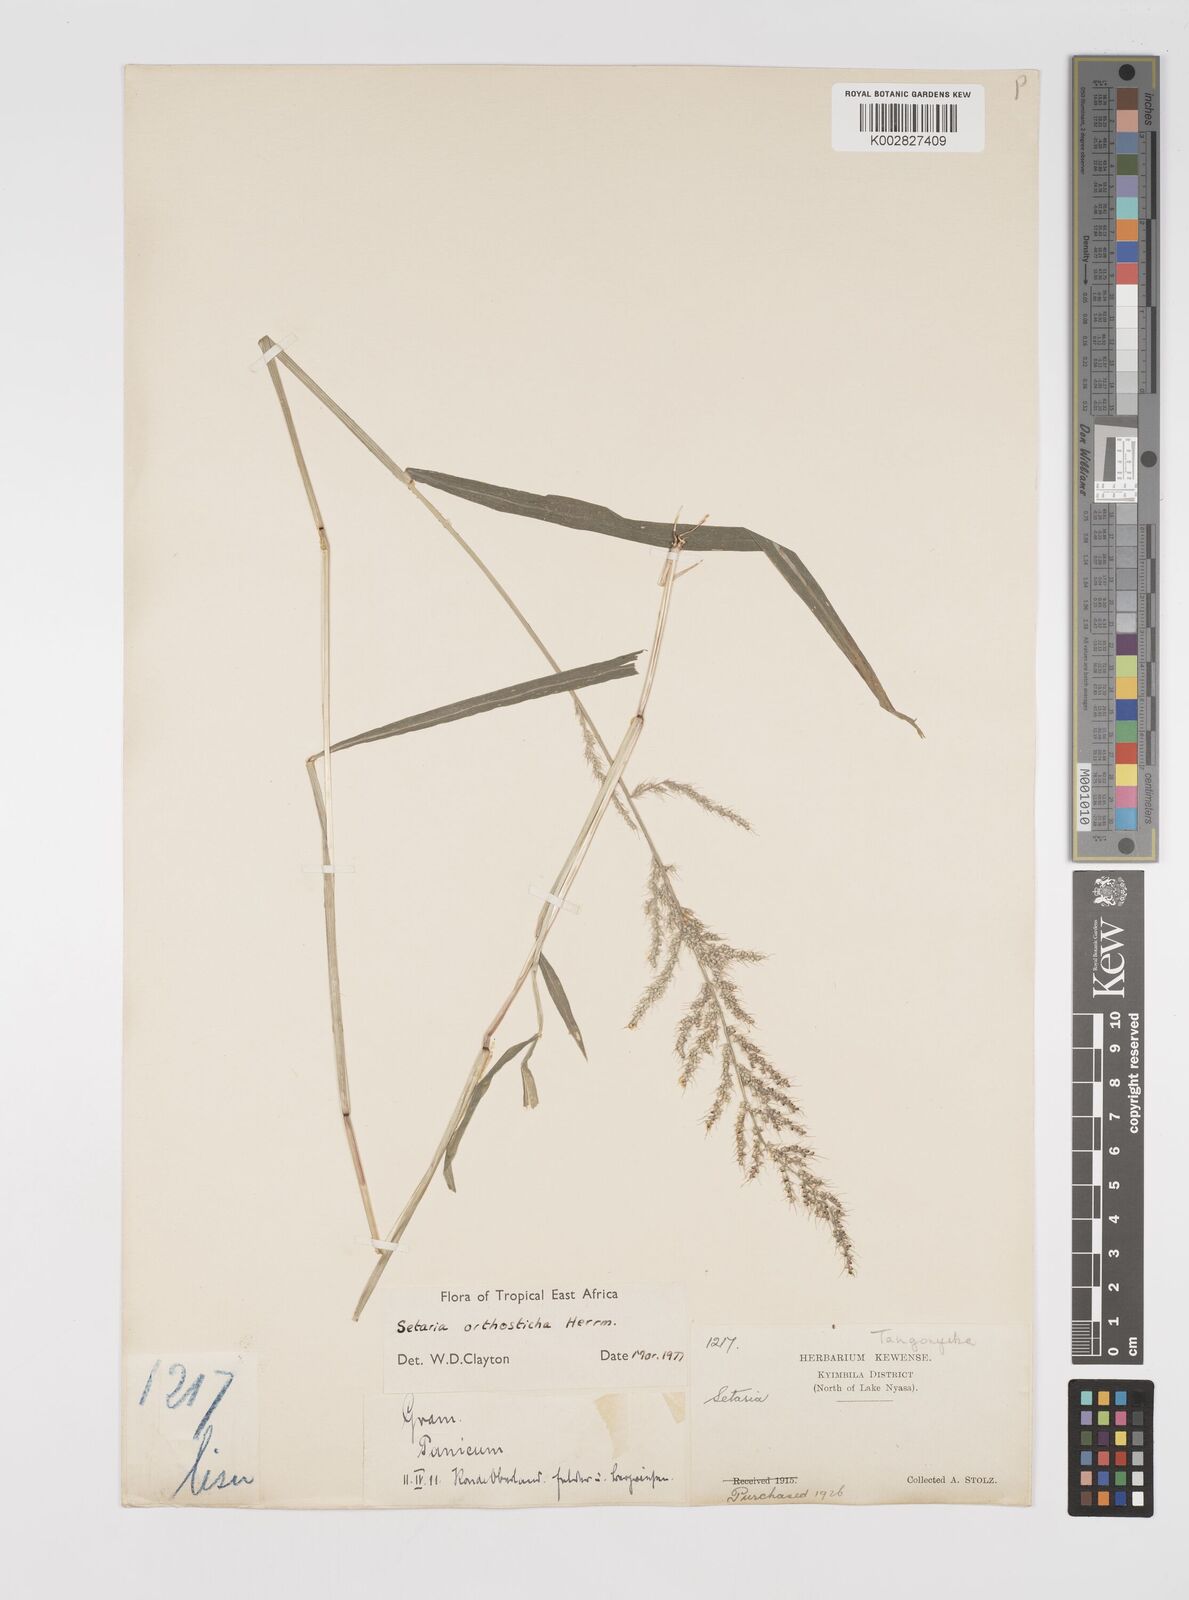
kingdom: Plantae
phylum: Tracheophyta
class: Liliopsida
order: Poales
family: Poaceae
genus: Setaria
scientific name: Setaria orthosticha
